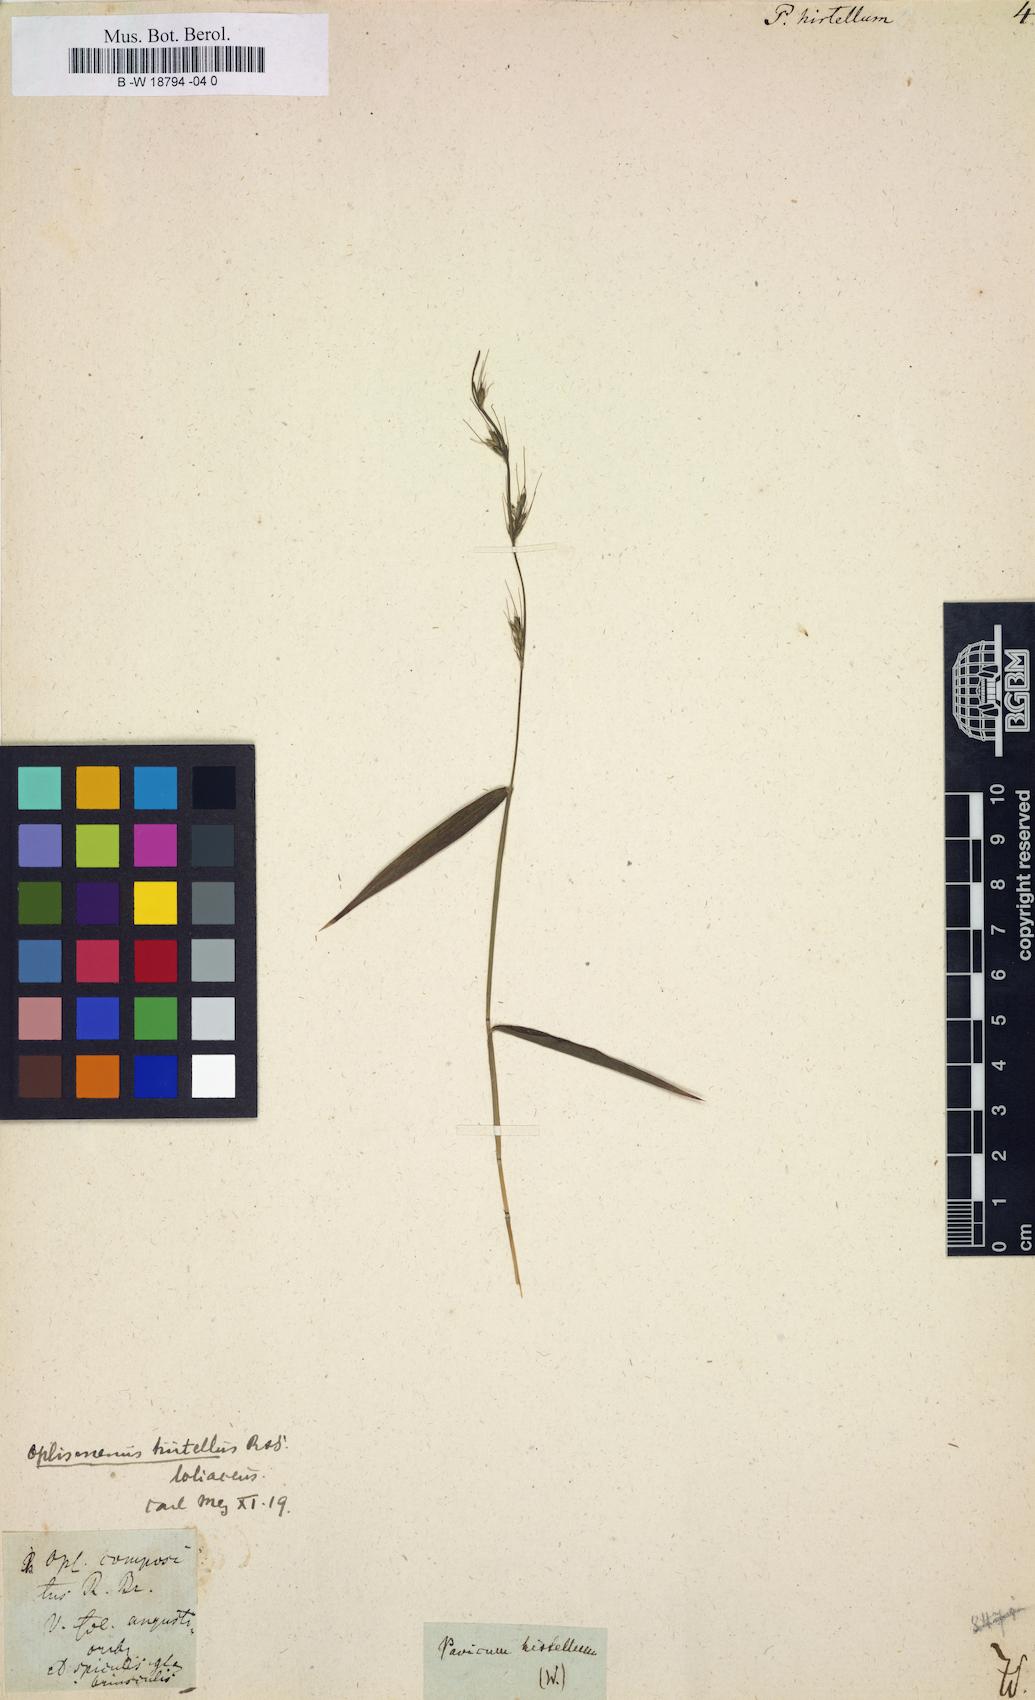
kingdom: Plantae
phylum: Tracheophyta
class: Liliopsida
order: Poales
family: Poaceae
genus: Panicum
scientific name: Panicum hirtellum
